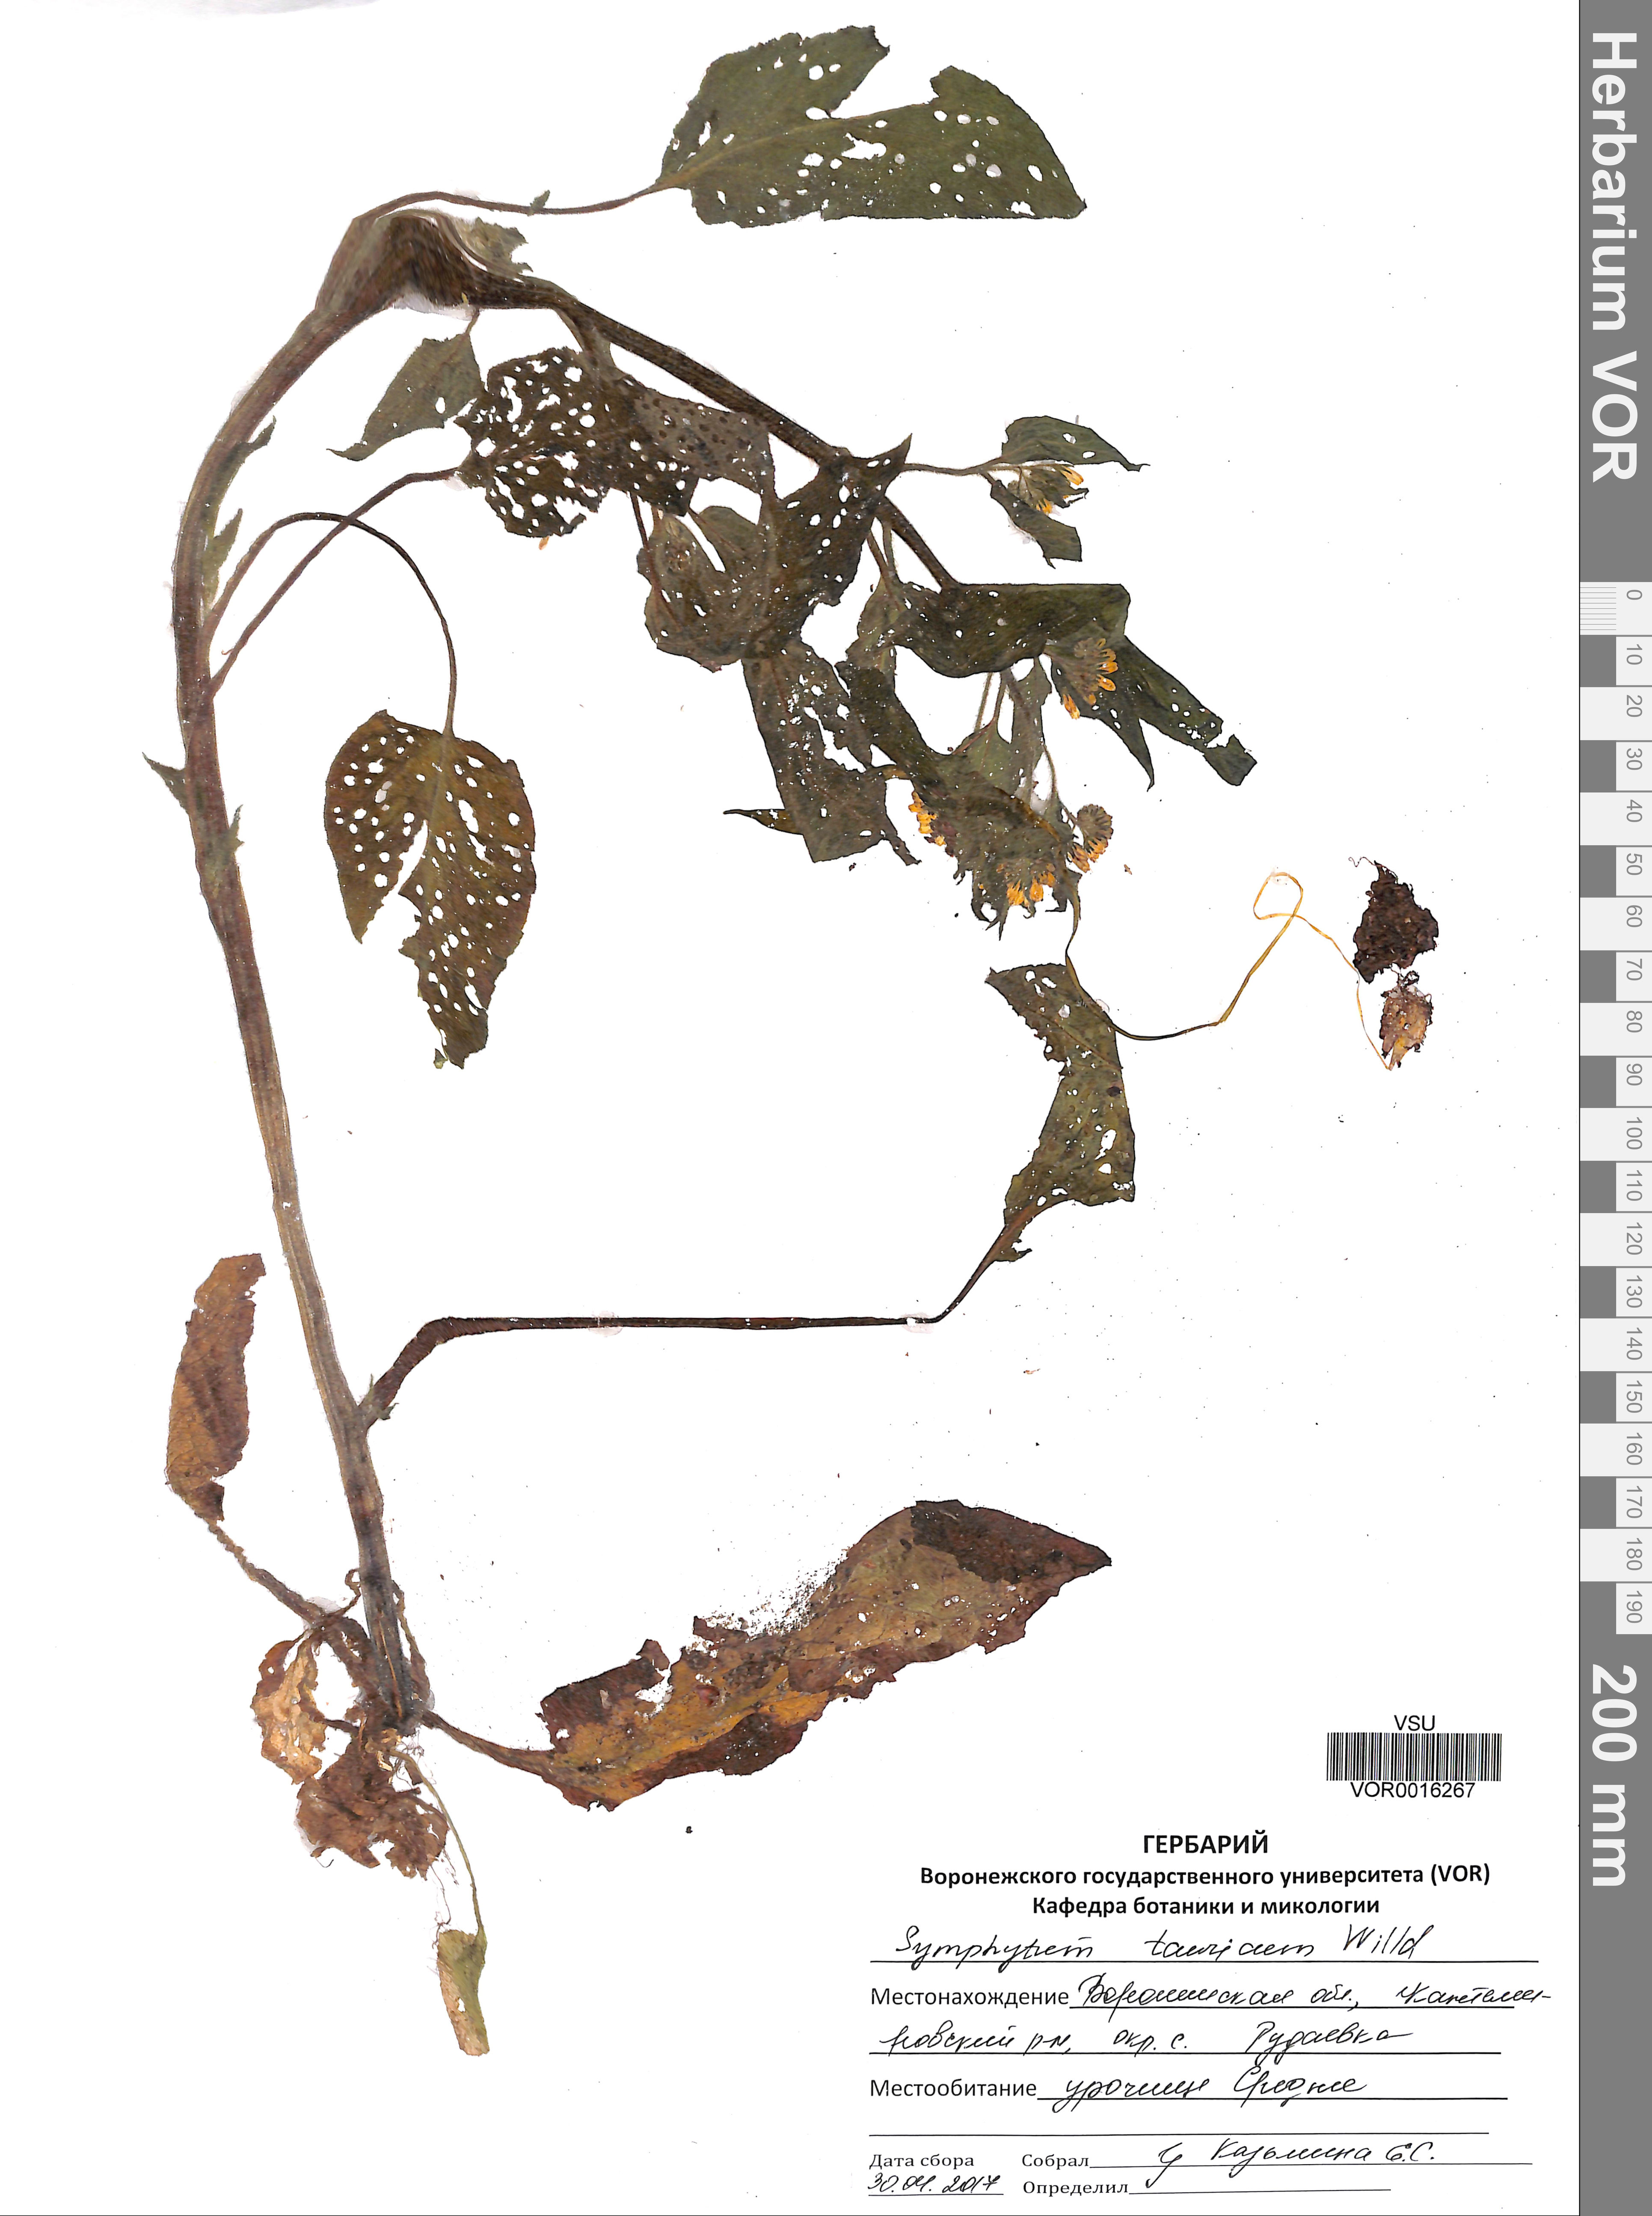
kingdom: Plantae
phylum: Tracheophyta
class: Magnoliopsida
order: Boraginales
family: Boraginaceae
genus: Symphytum
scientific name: Symphytum tauricum
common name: Crimean comfrey
